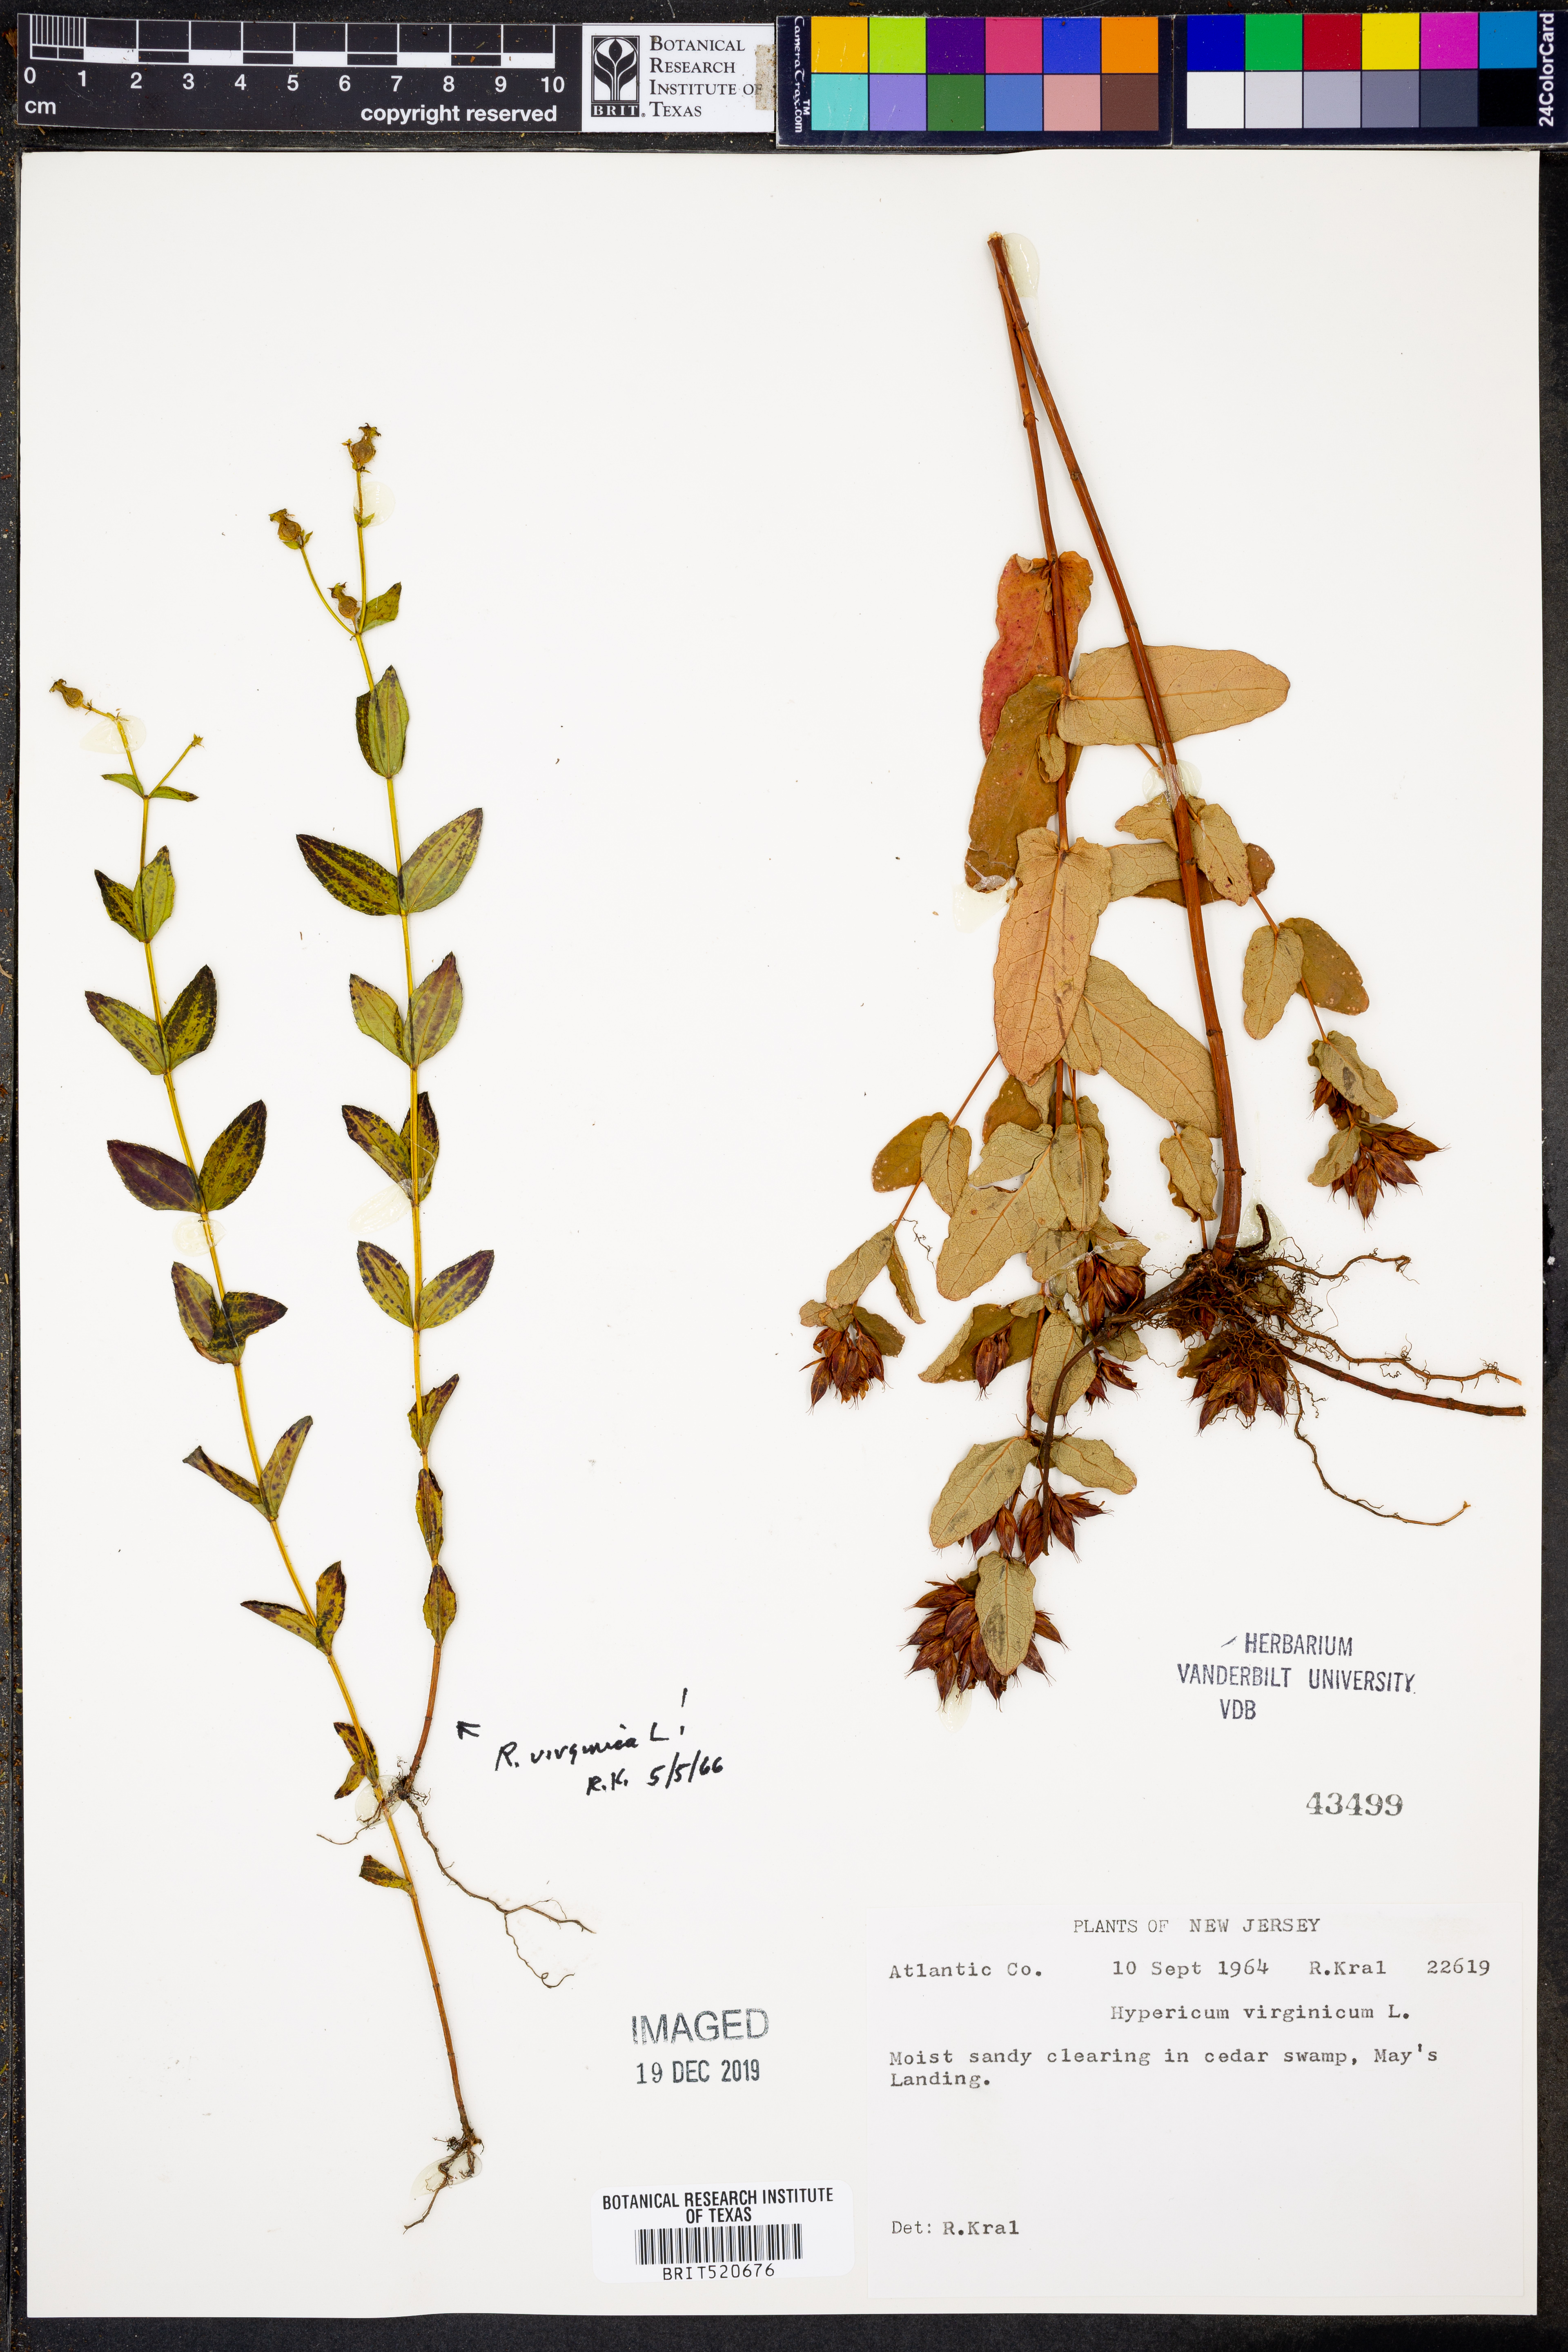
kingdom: Plantae
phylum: Tracheophyta
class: Magnoliopsida
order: Malpighiales
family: Hypericaceae
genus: Triadenum
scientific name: Triadenum virginicum
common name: Marsh st. john's-wort
